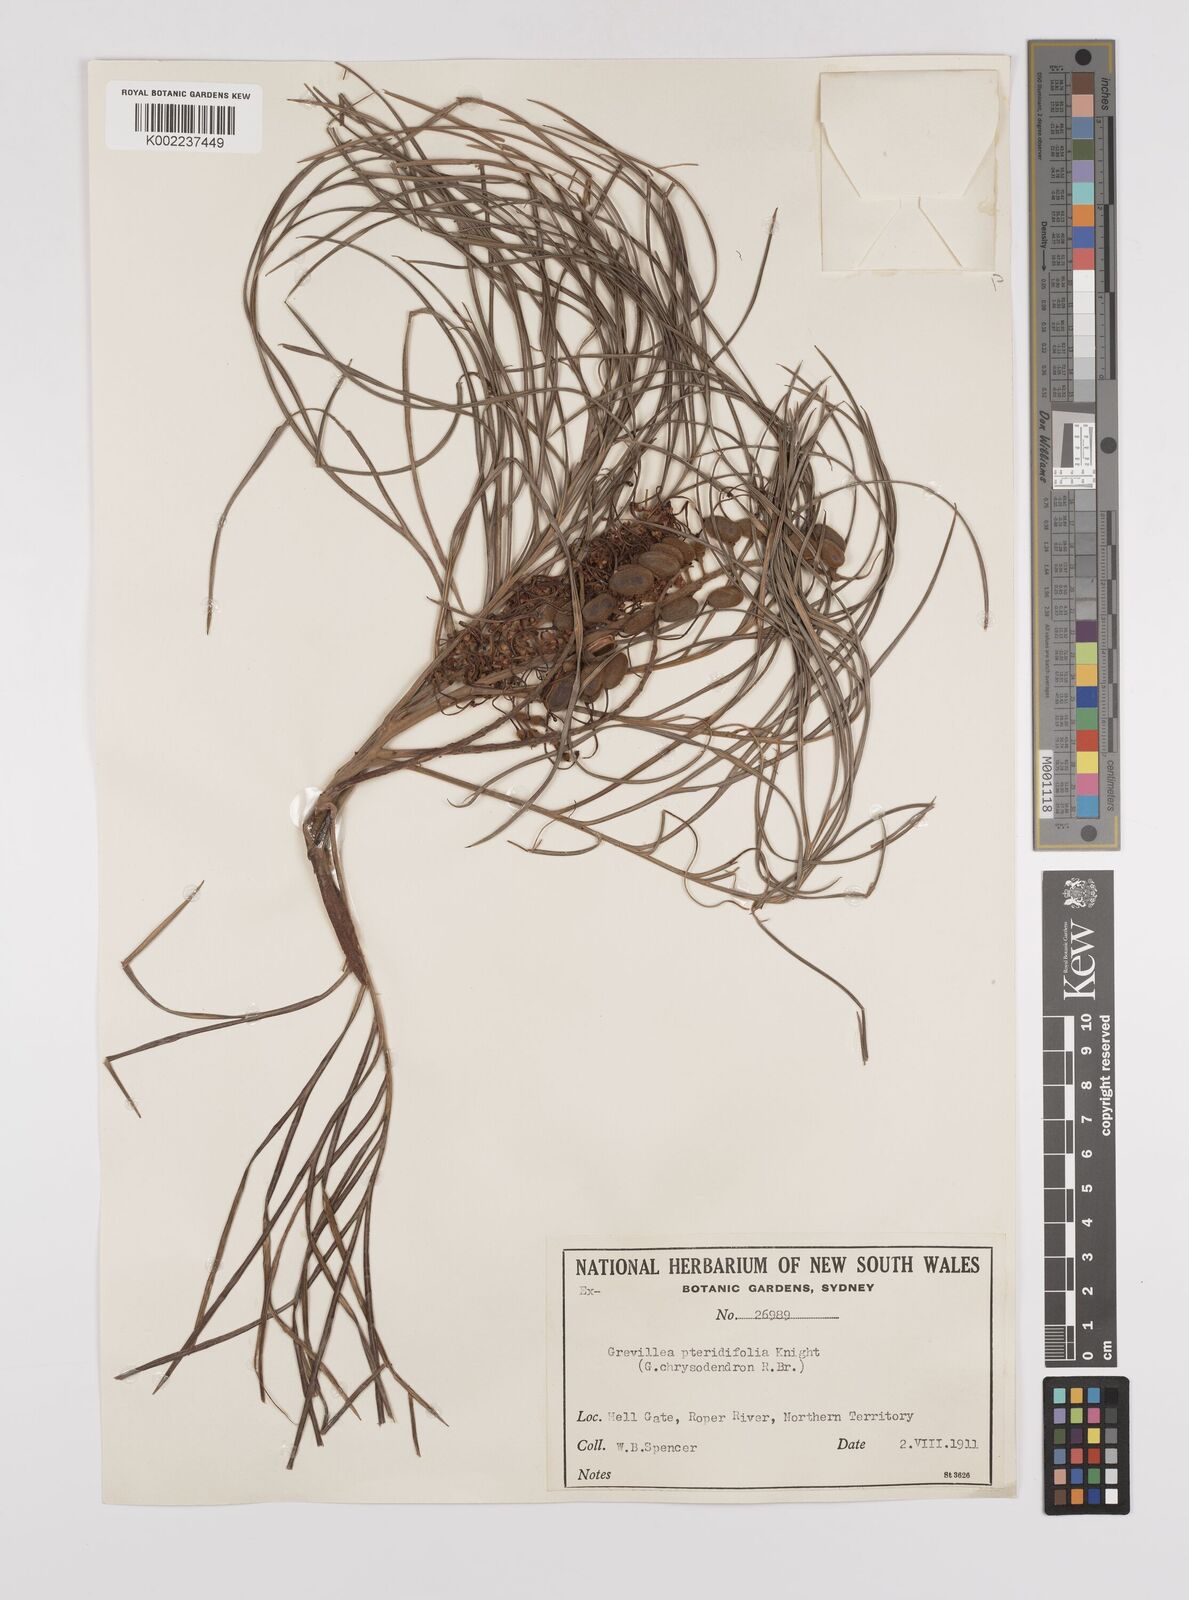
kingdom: Plantae
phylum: Tracheophyta
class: Magnoliopsida
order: Proteales
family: Proteaceae
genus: Grevillea
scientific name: Grevillea pteridifolia
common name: Golden grevillea
